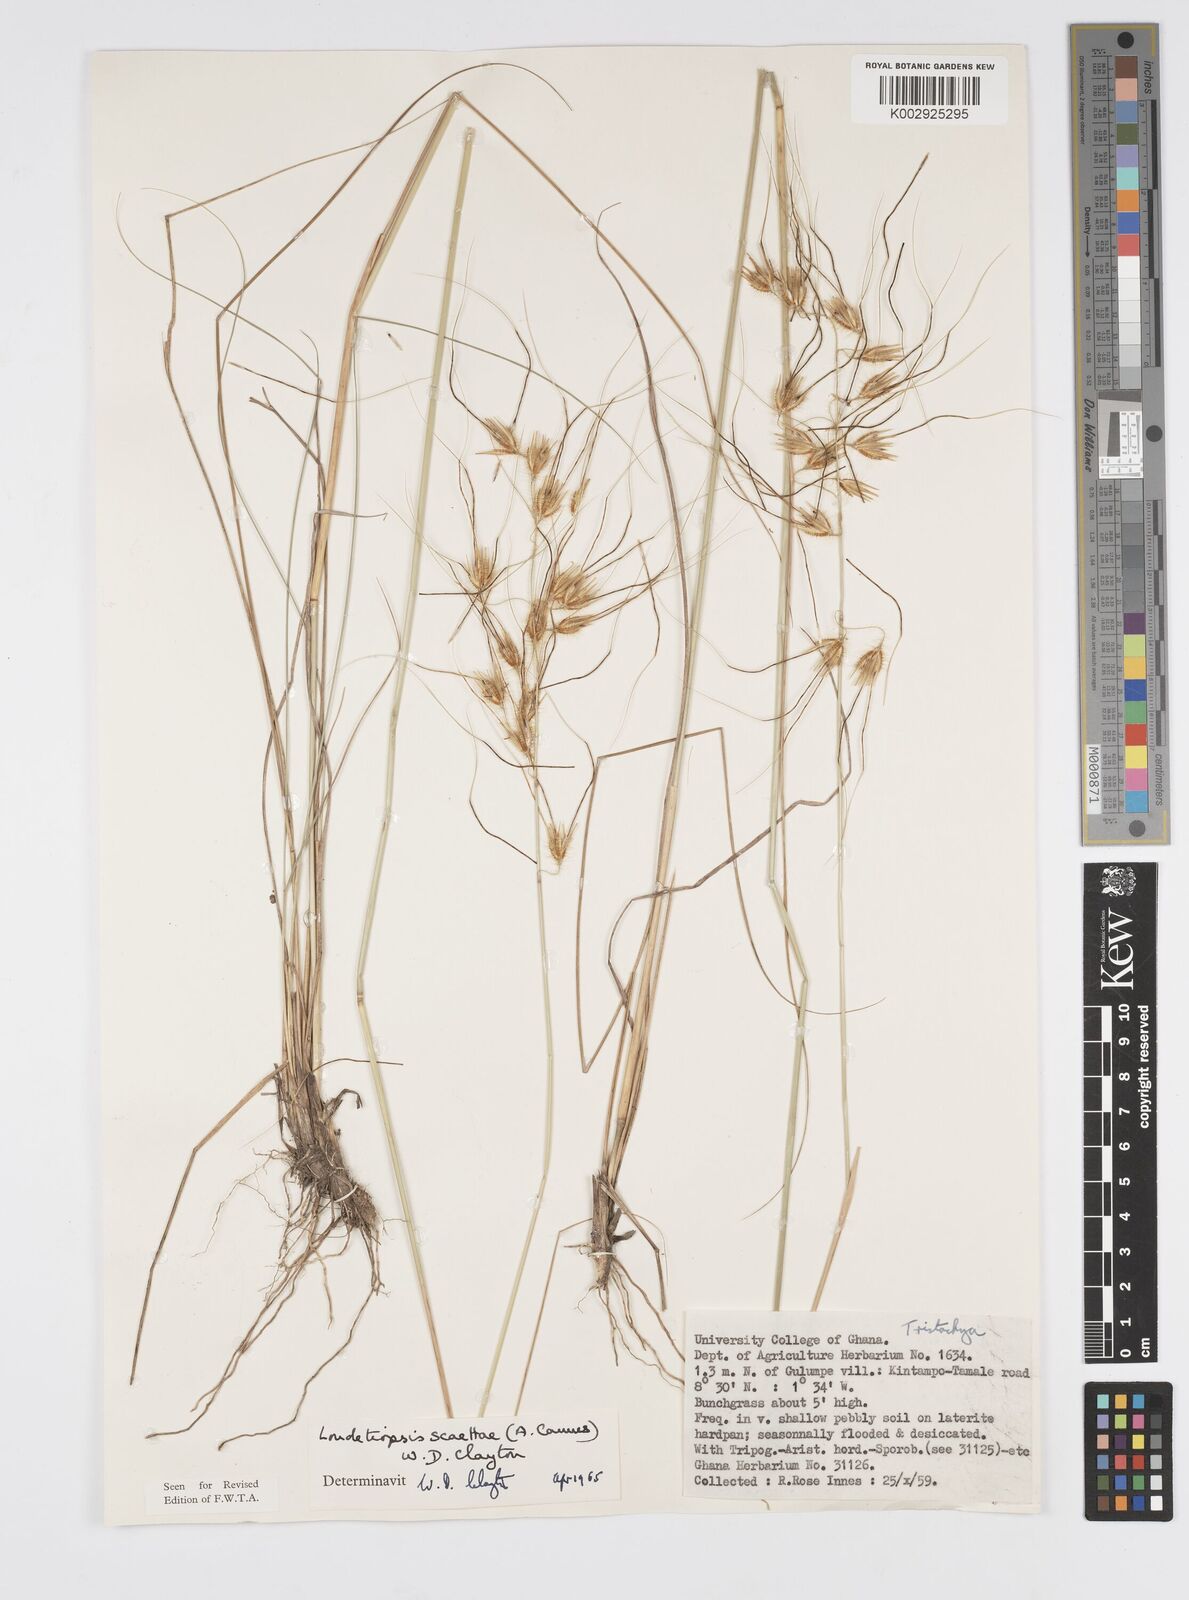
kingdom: Plantae
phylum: Tracheophyta
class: Liliopsida
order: Poales
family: Poaceae
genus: Loudetiopsis
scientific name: Loudetiopsis scaettae
